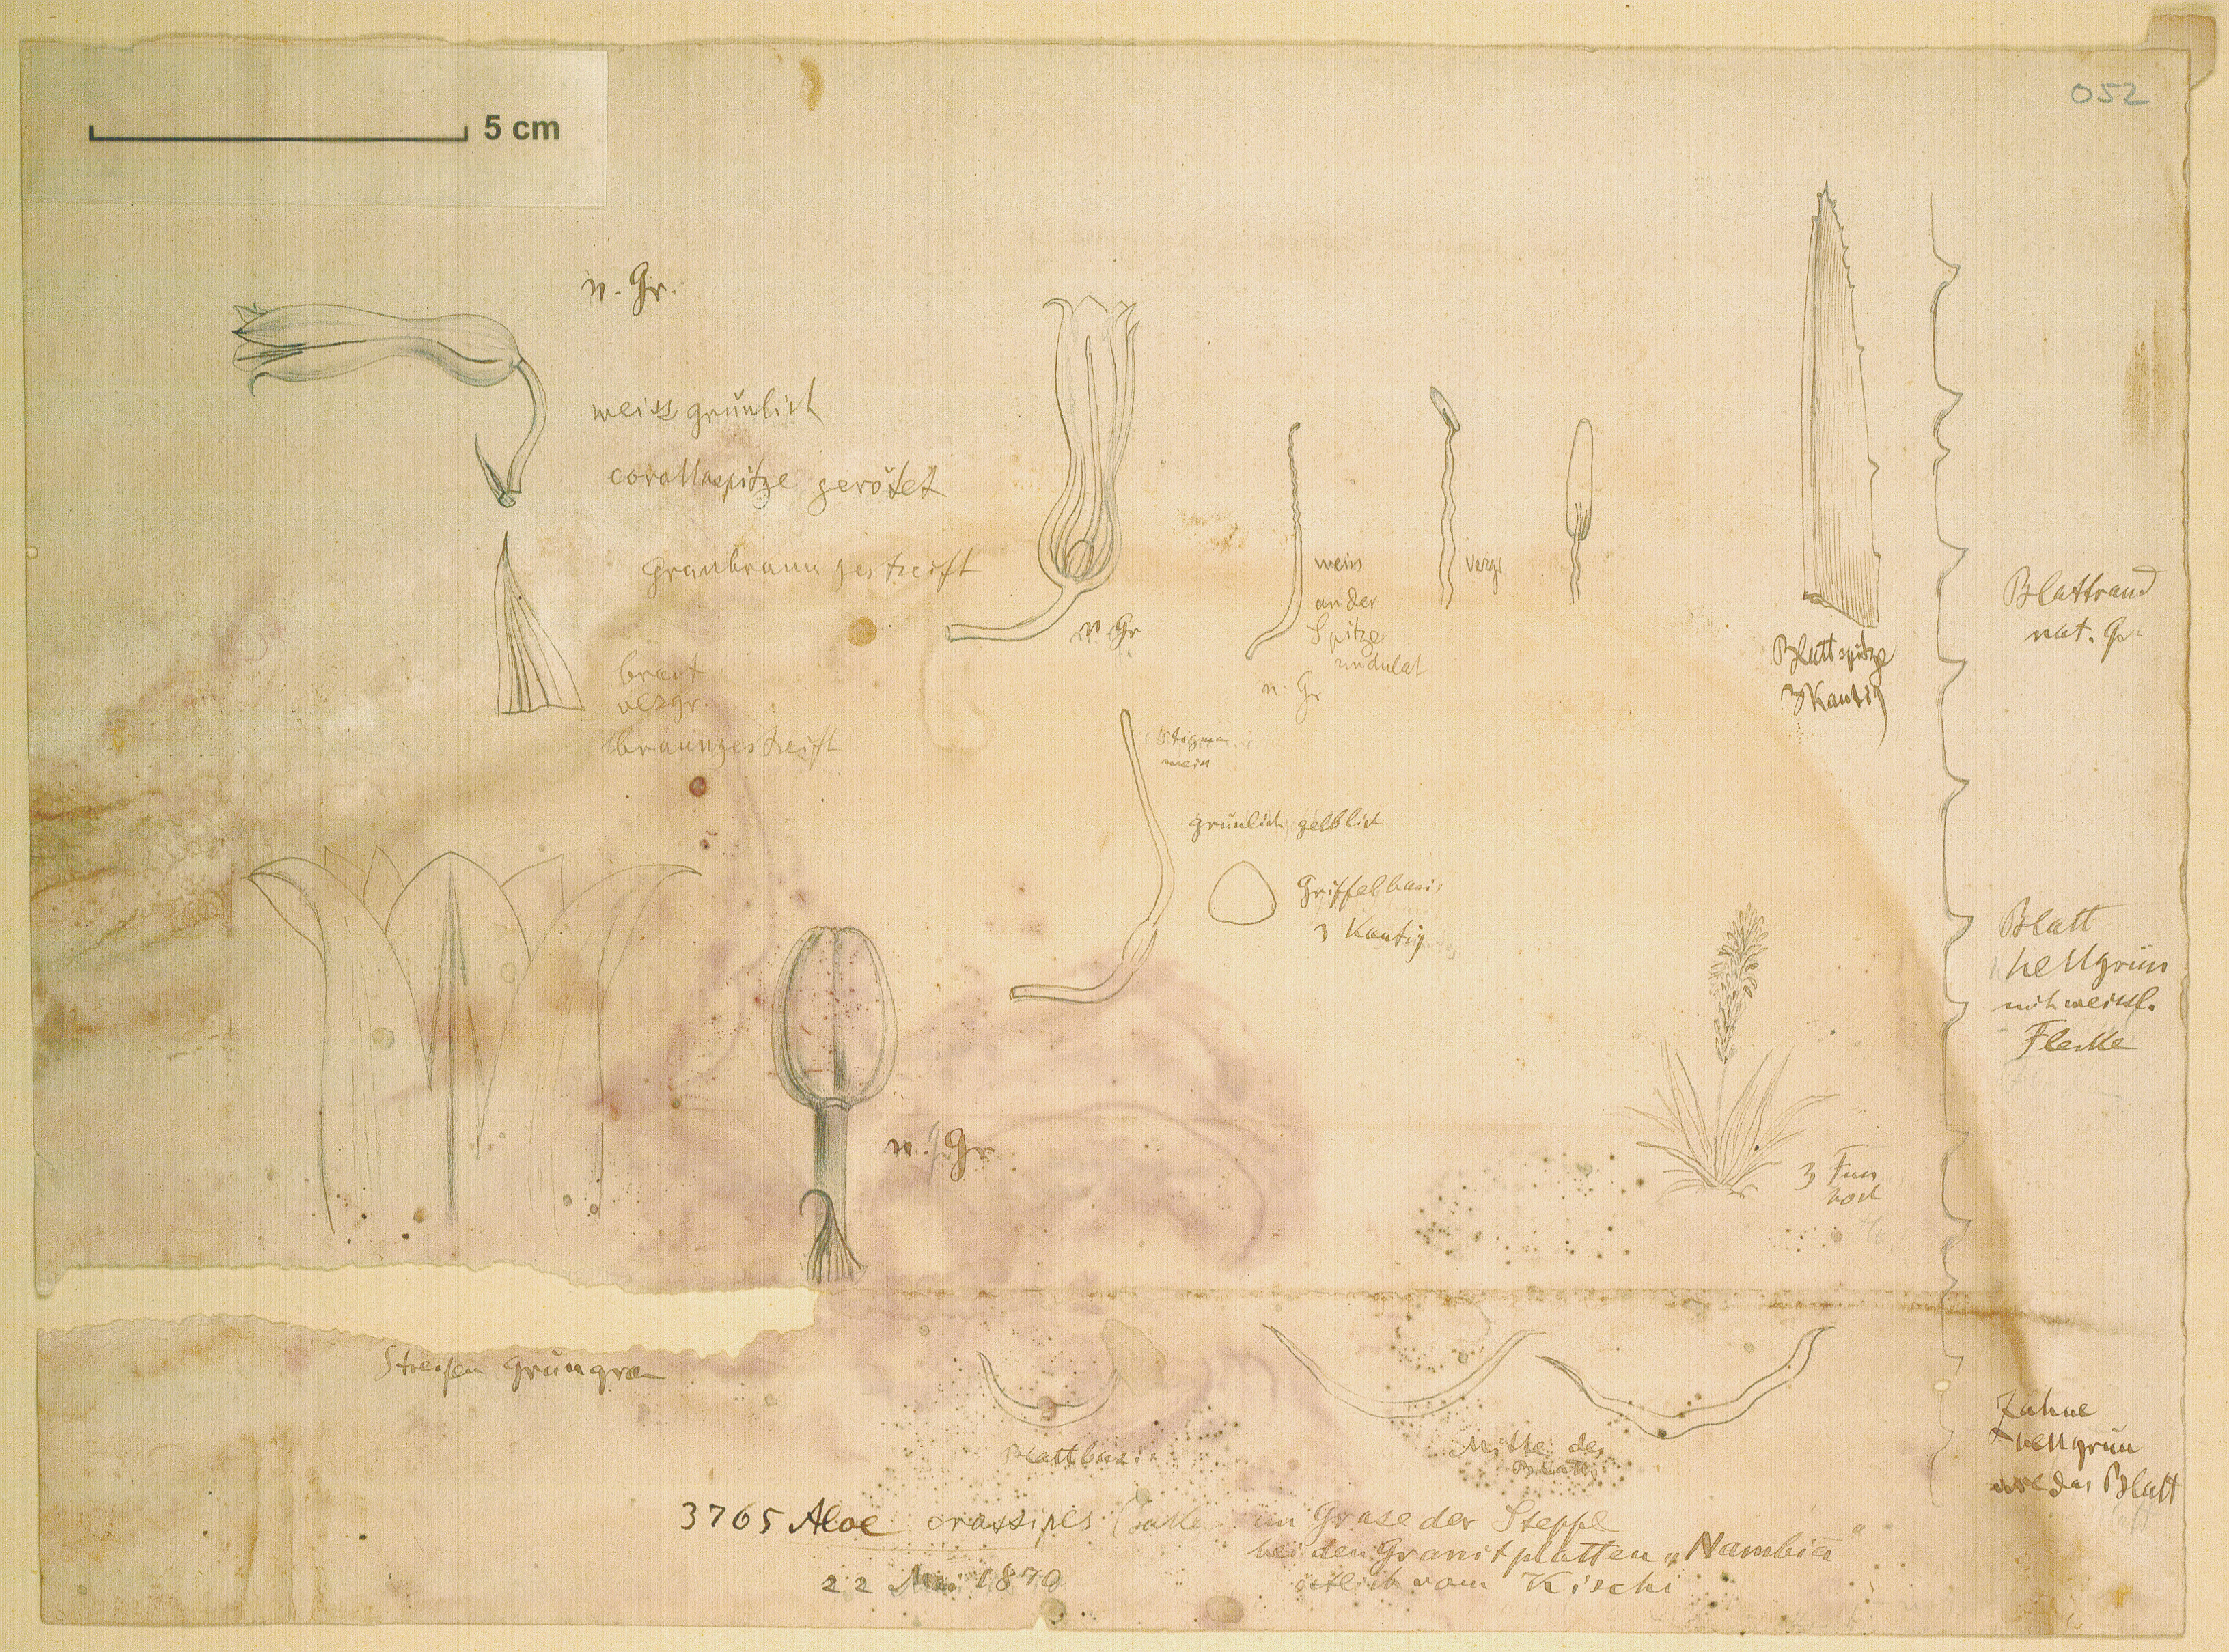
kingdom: Plantae
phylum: Tracheophyta
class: Liliopsida
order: Asparagales
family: Asphodelaceae
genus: Aloe
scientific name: Aloe crassipes
